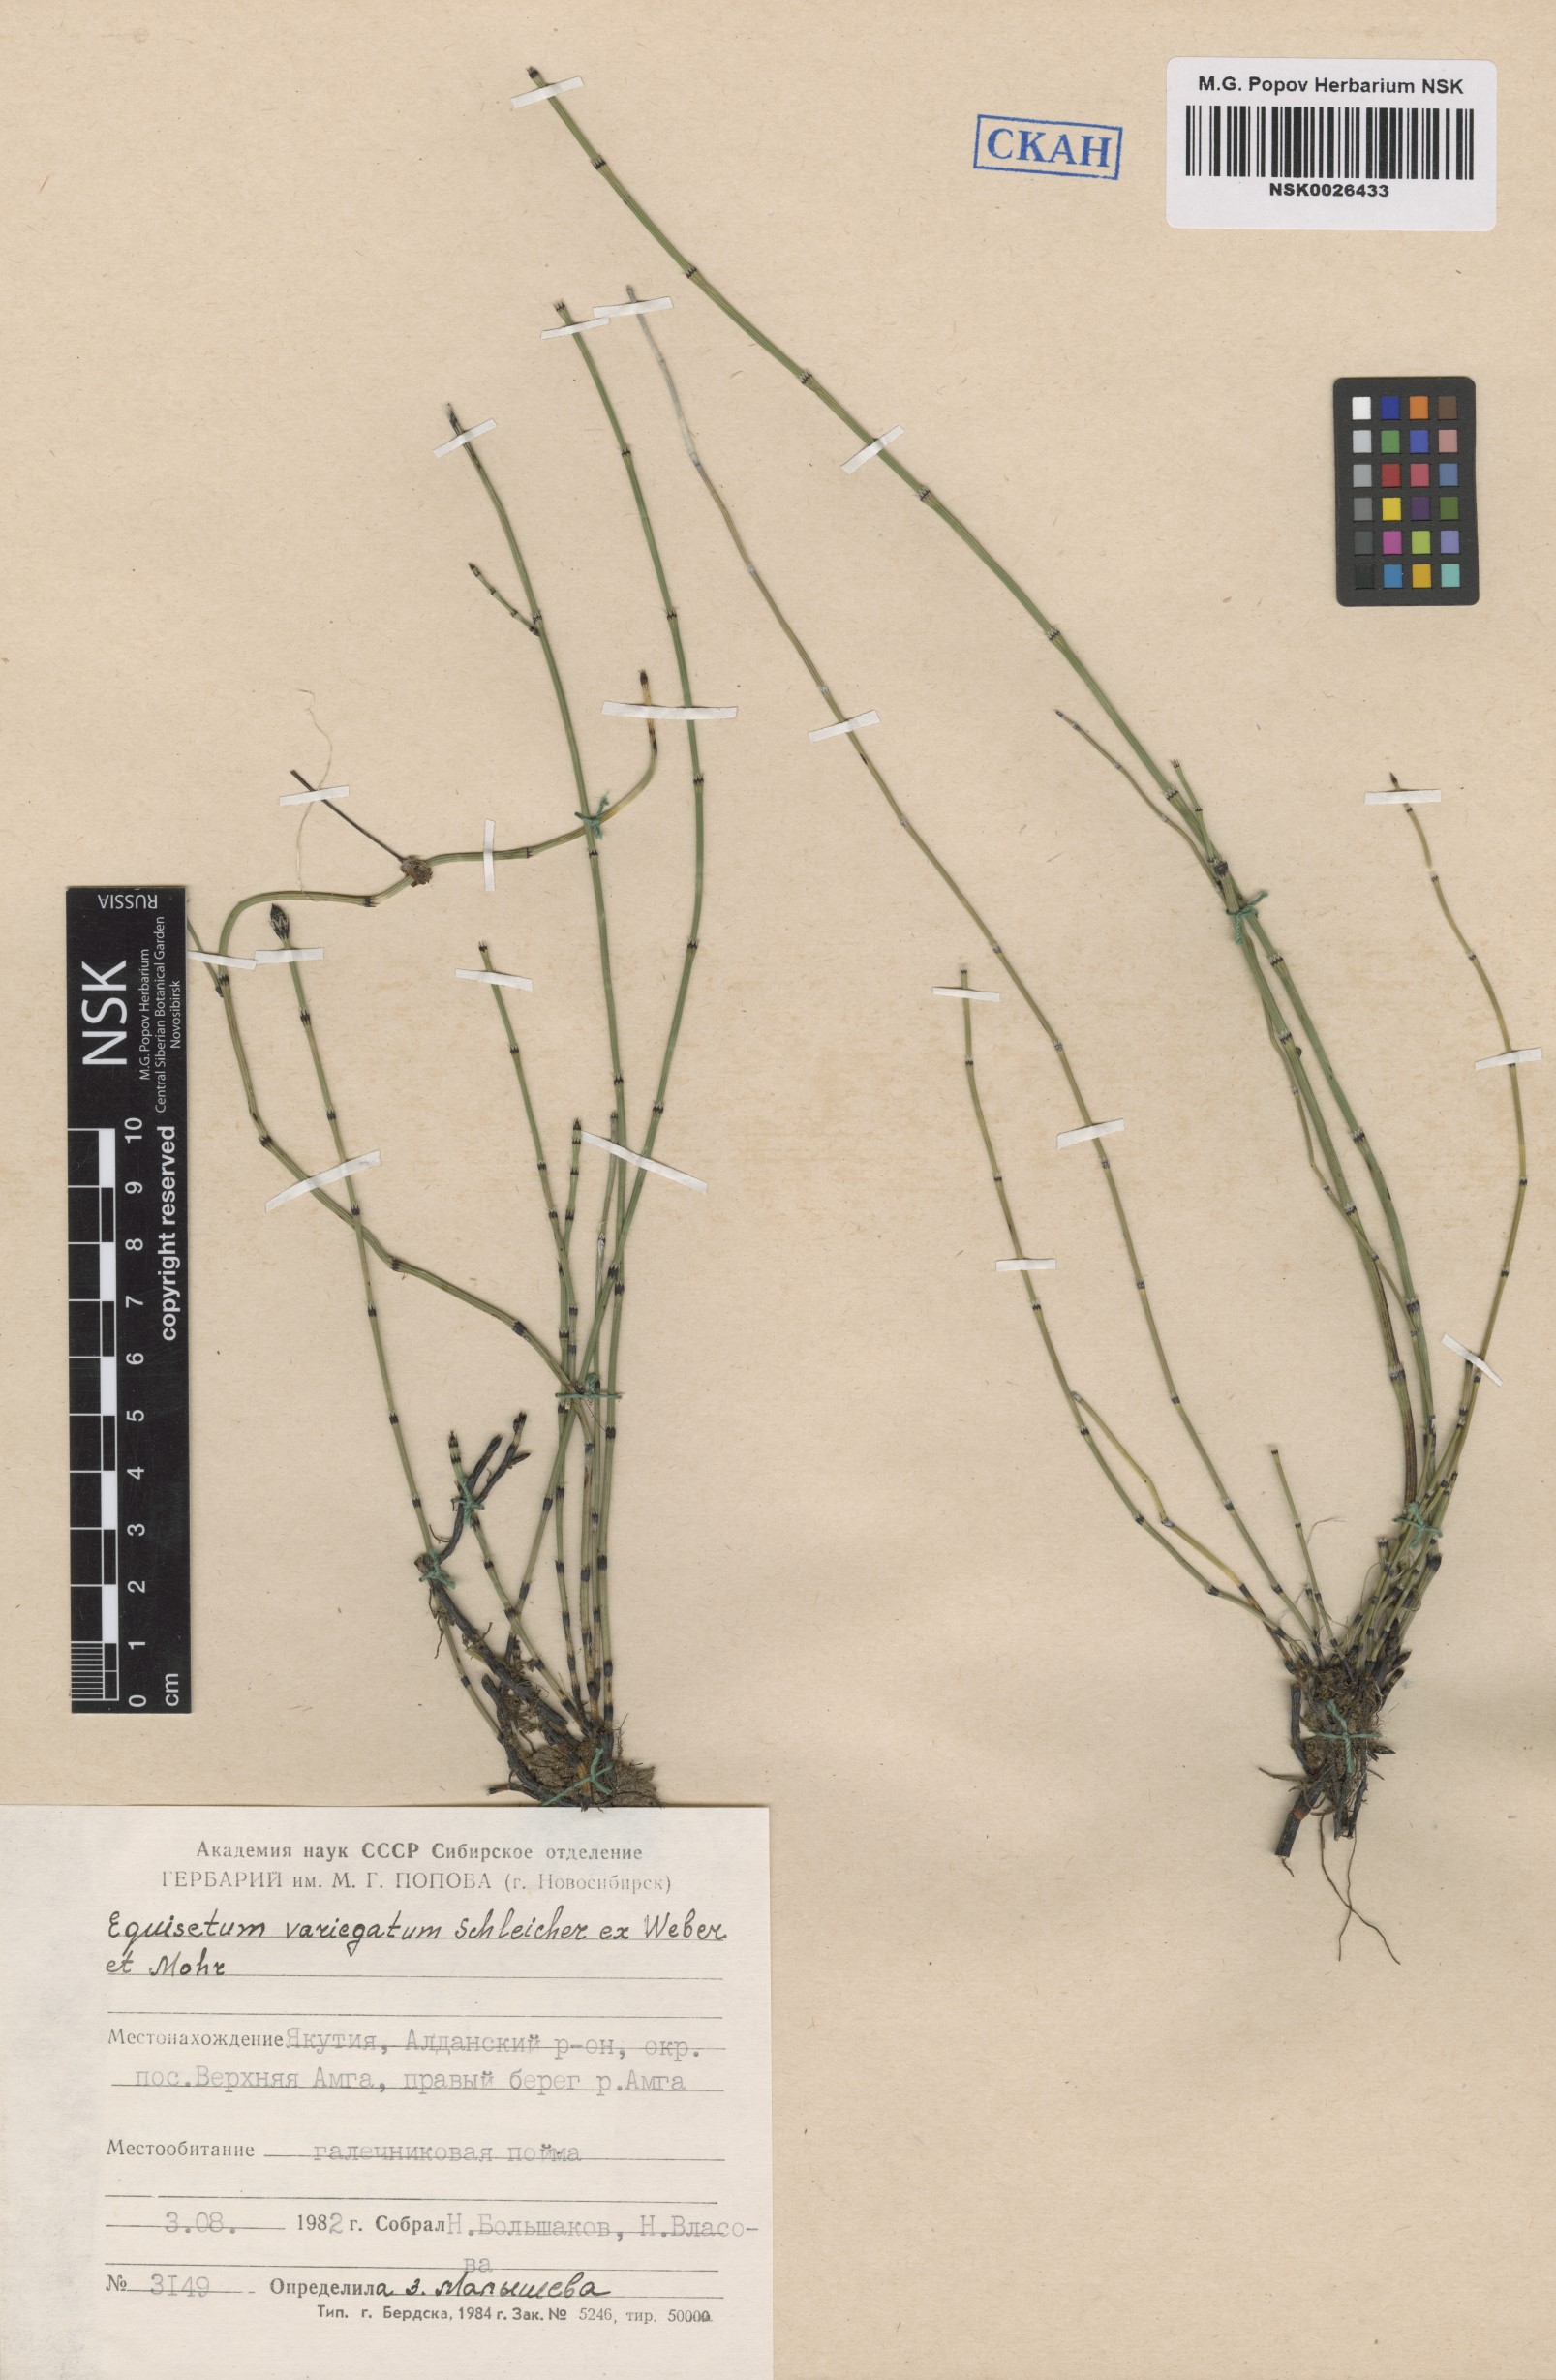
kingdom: Plantae
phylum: Tracheophyta
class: Polypodiopsida
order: Equisetales
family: Equisetaceae
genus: Equisetum
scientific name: Equisetum variegatum
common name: Variegated horsetail
